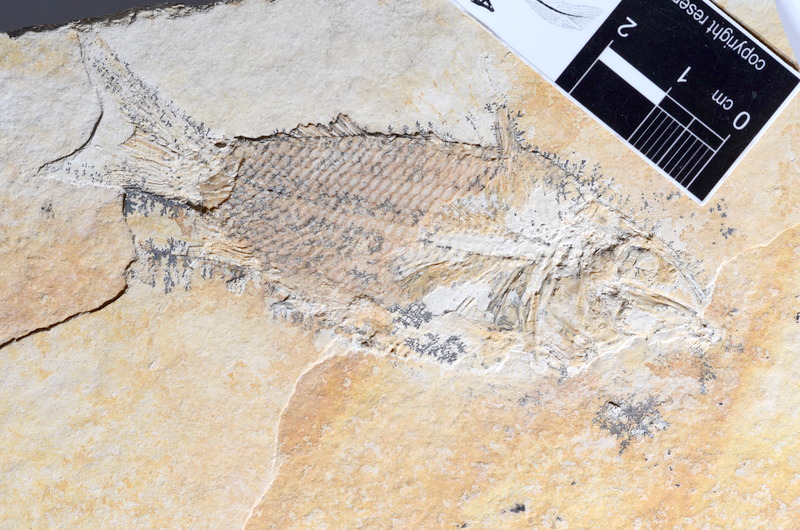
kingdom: Animalia
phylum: Chordata
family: Macrosemiidae
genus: Propterus
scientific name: Propterus microstomus
